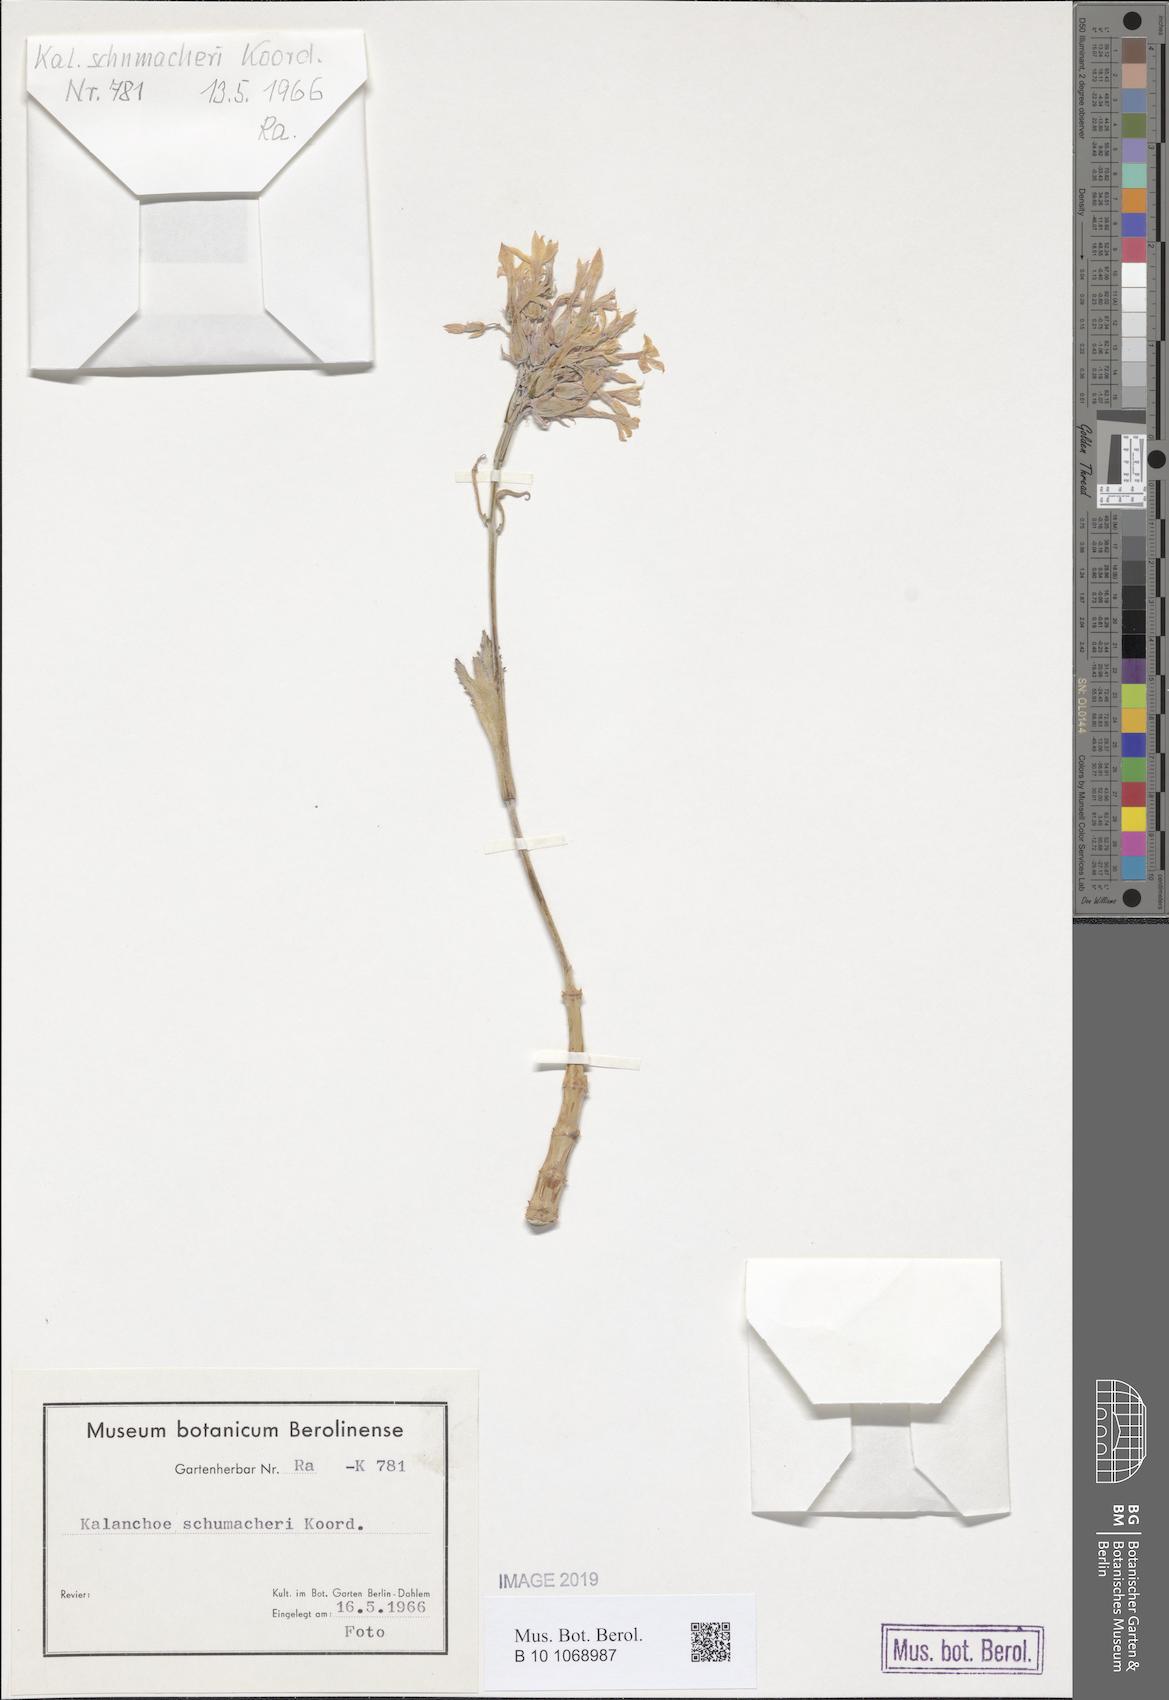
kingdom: Plantae
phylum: Tracheophyta
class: Magnoliopsida
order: Saxifragales
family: Crassulaceae
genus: Kalanchoe
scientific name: Kalanchoe integra
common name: Neverdie
